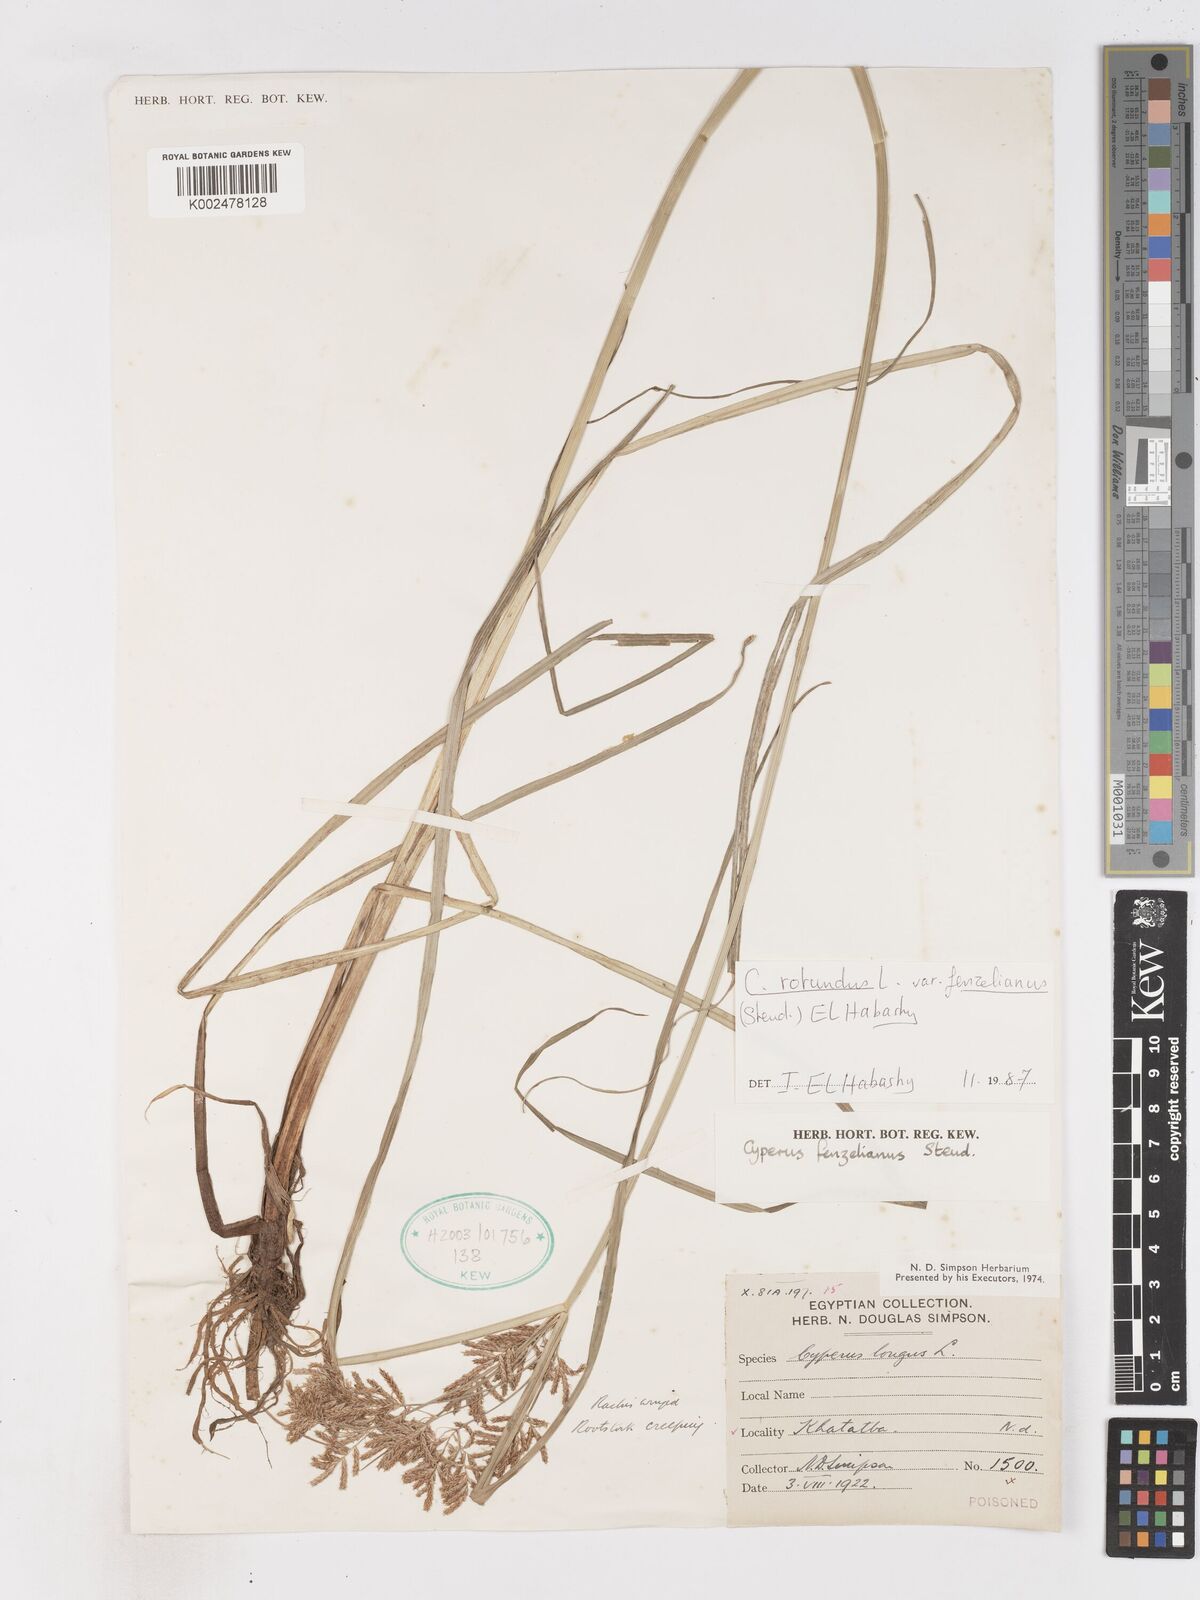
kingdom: Plantae
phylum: Tracheophyta
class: Liliopsida
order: Poales
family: Cyperaceae
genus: Cyperus
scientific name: Cyperus rotundus
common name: Nutgrass
